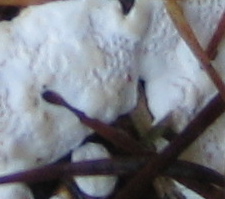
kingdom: Fungi
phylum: Basidiomycota
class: Agaricomycetes
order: Russulales
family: Bondarzewiaceae
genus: Heterobasidion
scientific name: Heterobasidion annosum
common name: almindelig rodfordærver
